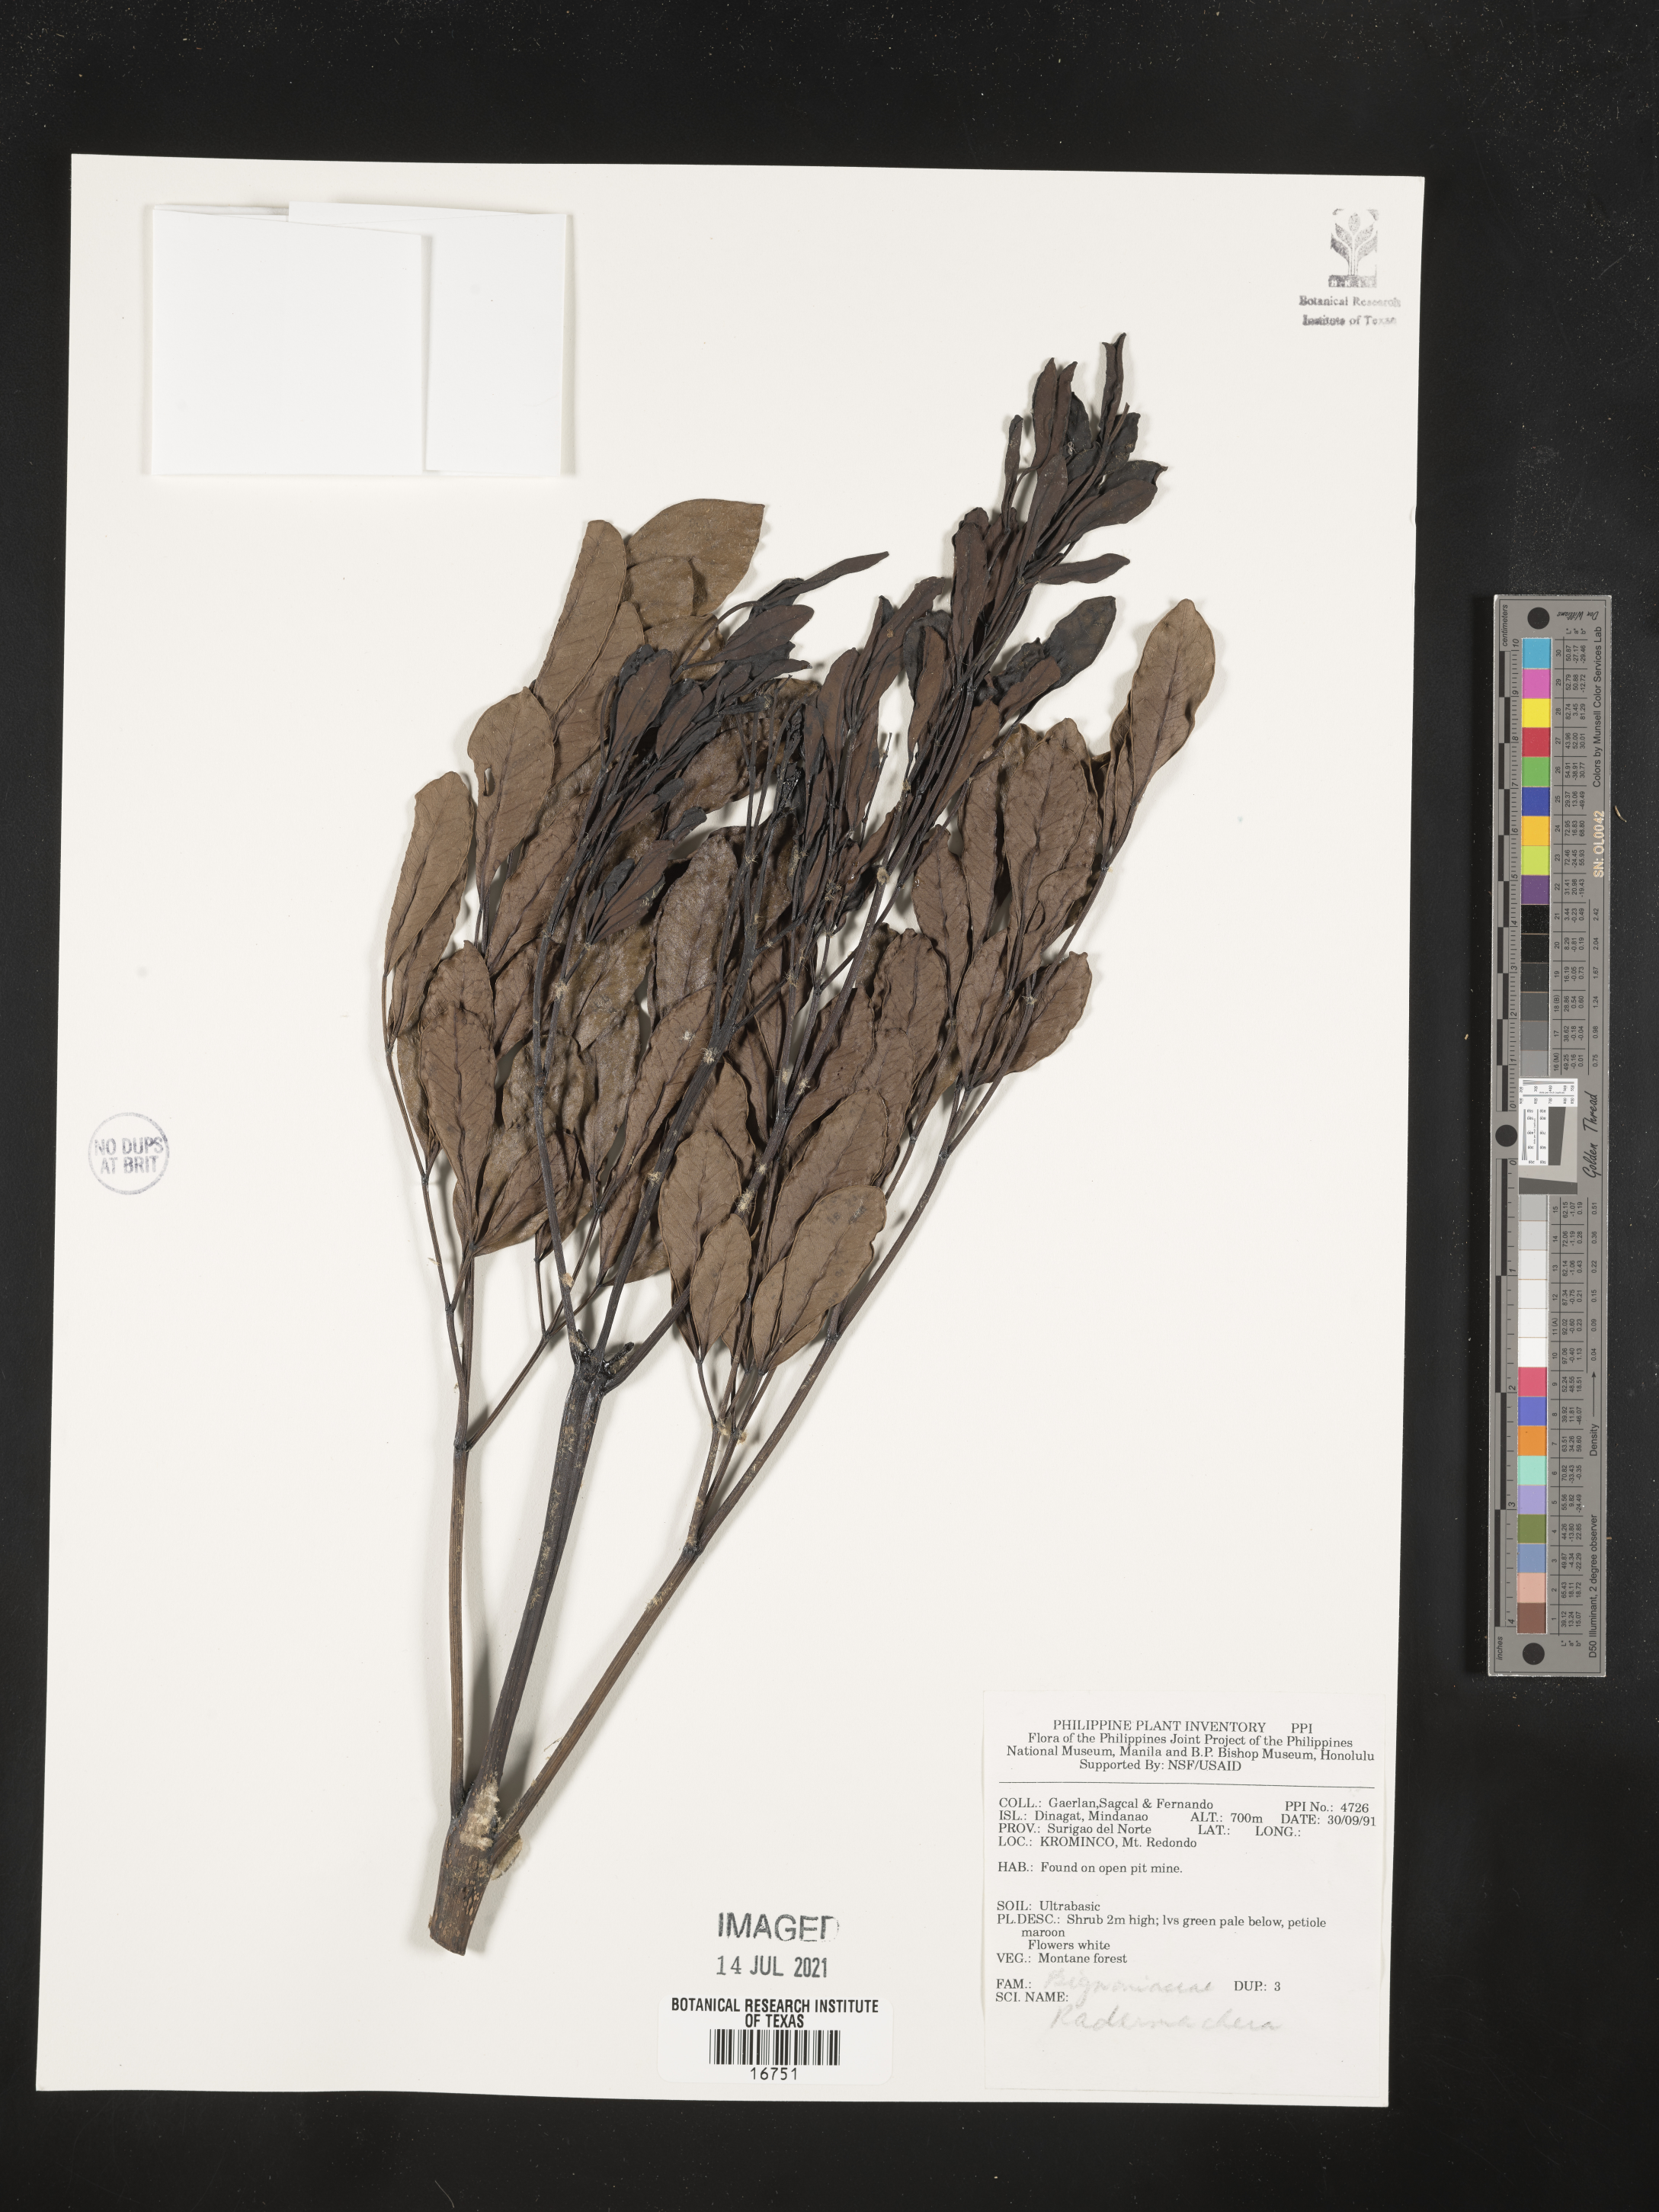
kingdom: Plantae
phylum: Tracheophyta
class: Magnoliopsida
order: Lamiales
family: Bignoniaceae
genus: Radermachera
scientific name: Radermachera
